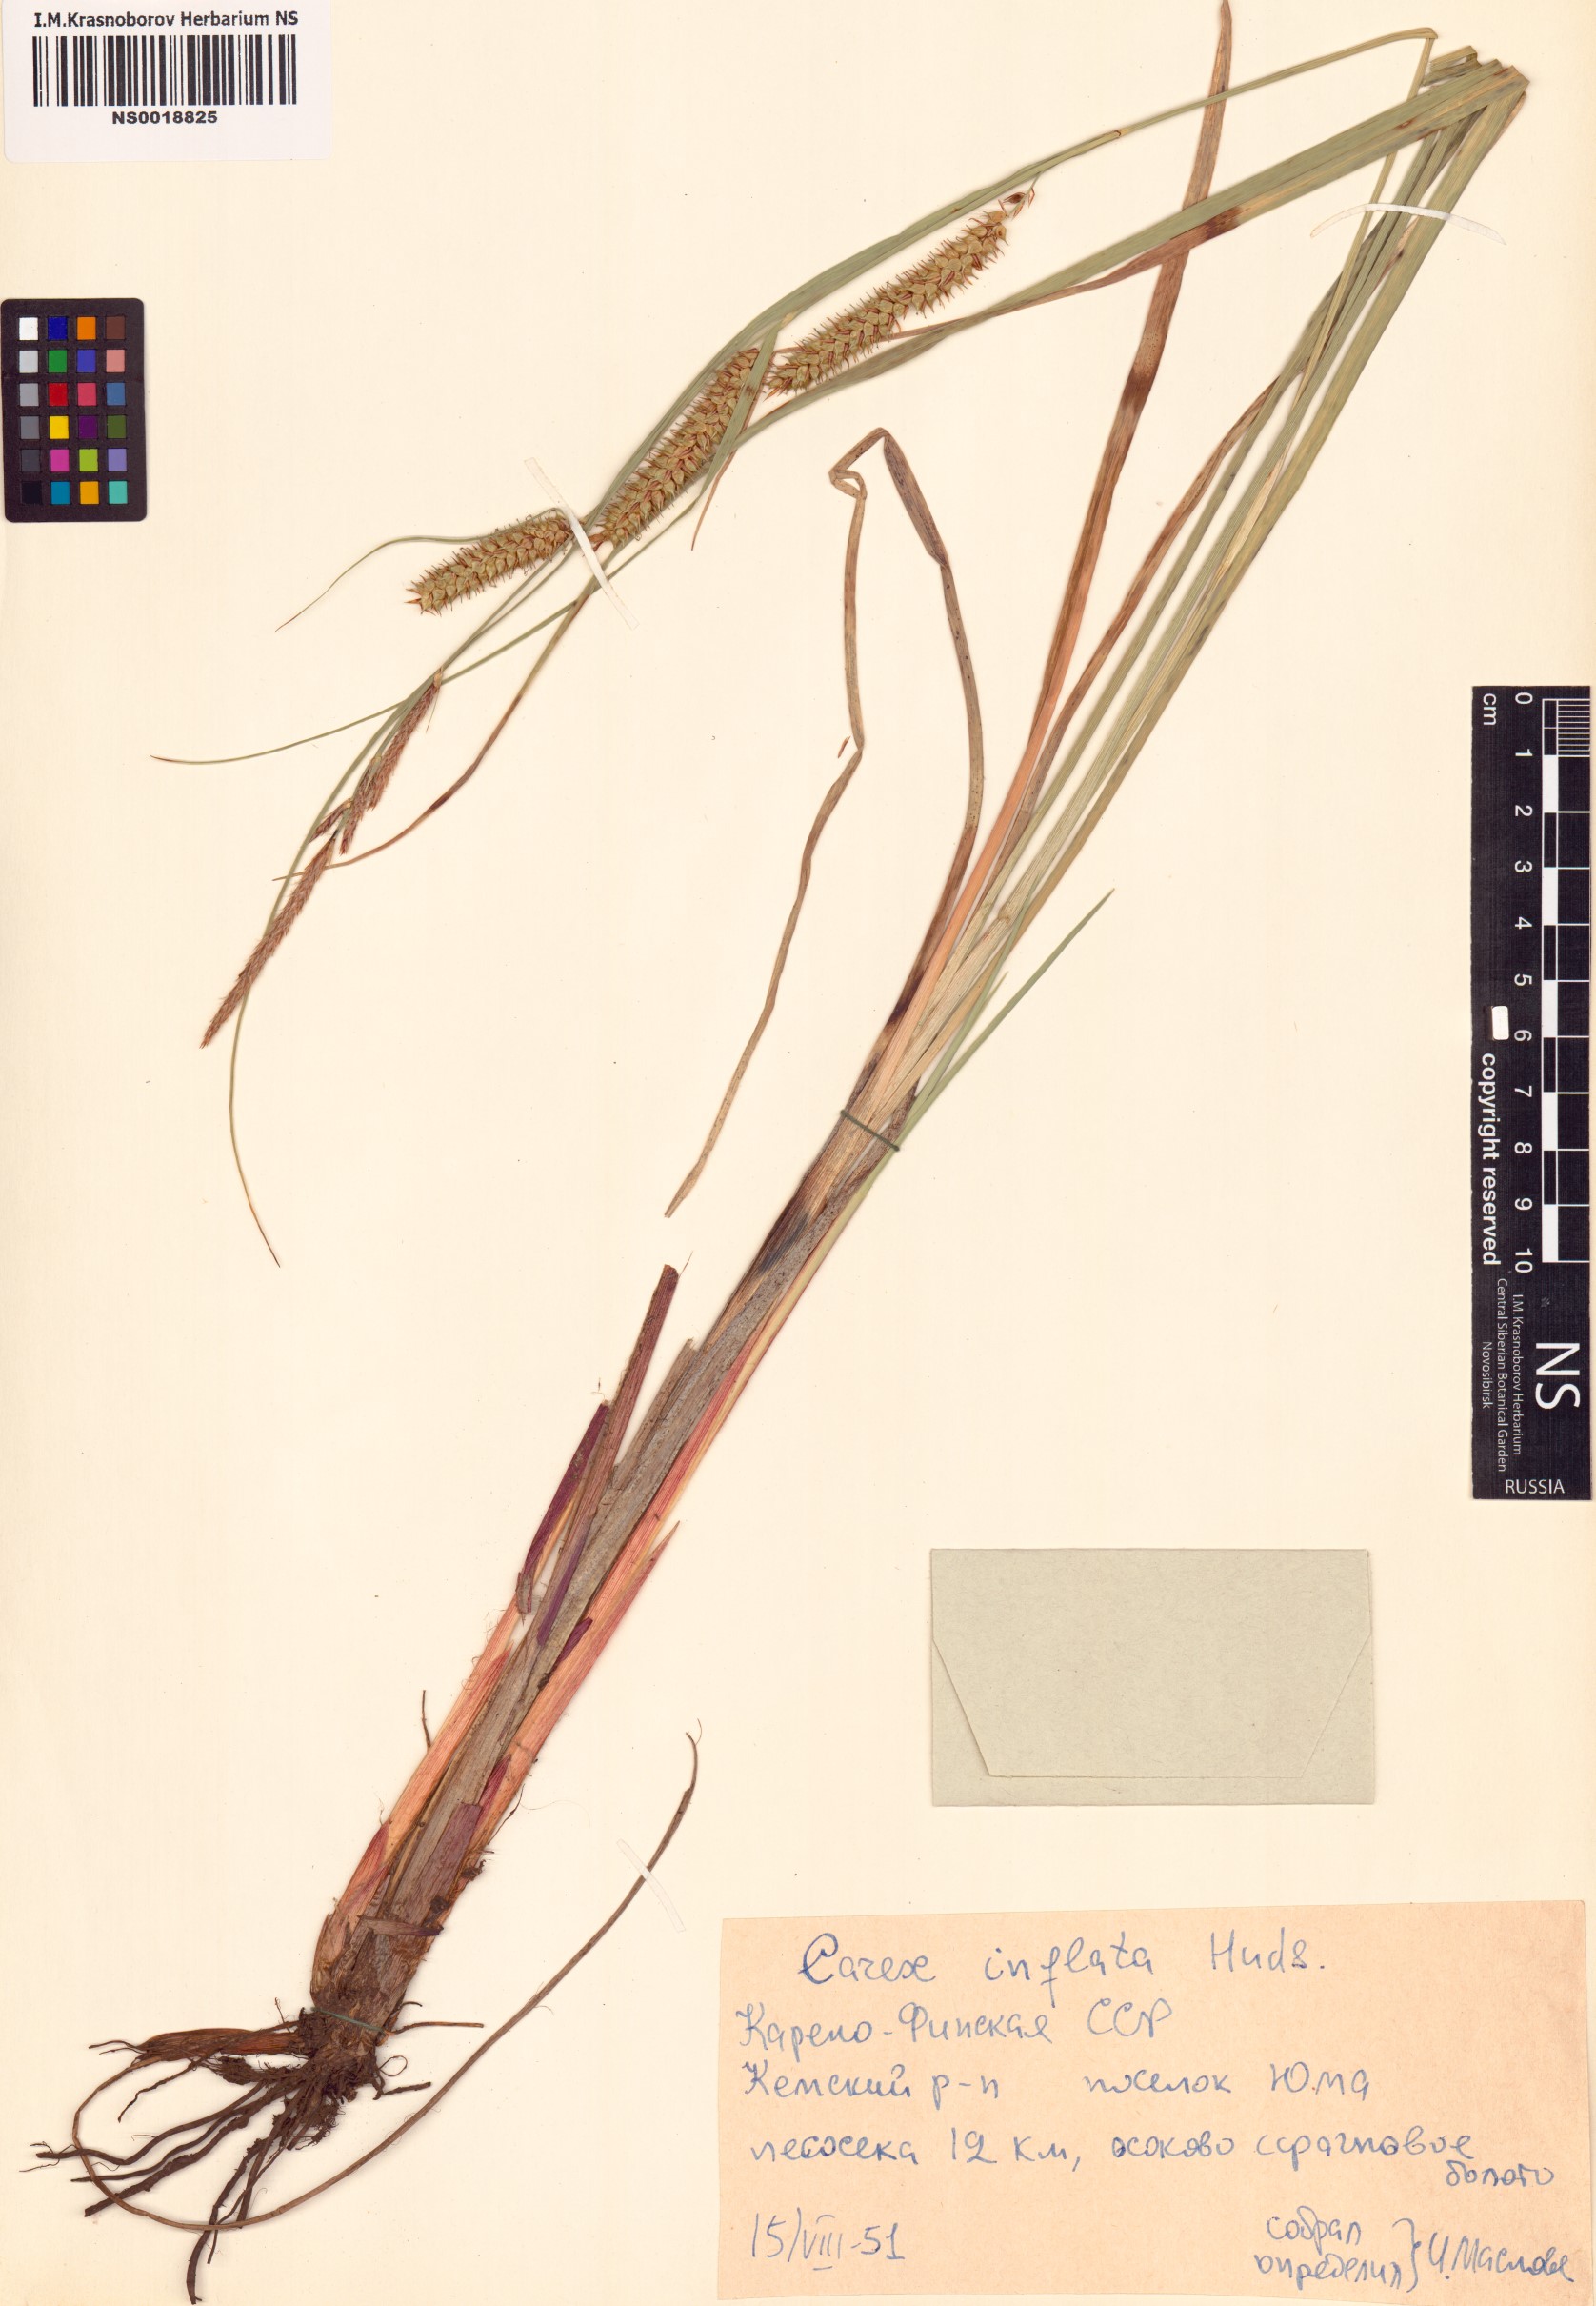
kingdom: Plantae
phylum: Tracheophyta
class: Liliopsida
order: Poales
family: Cyperaceae
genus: Carex
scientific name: Carex rostrata
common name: Bottle sedge
